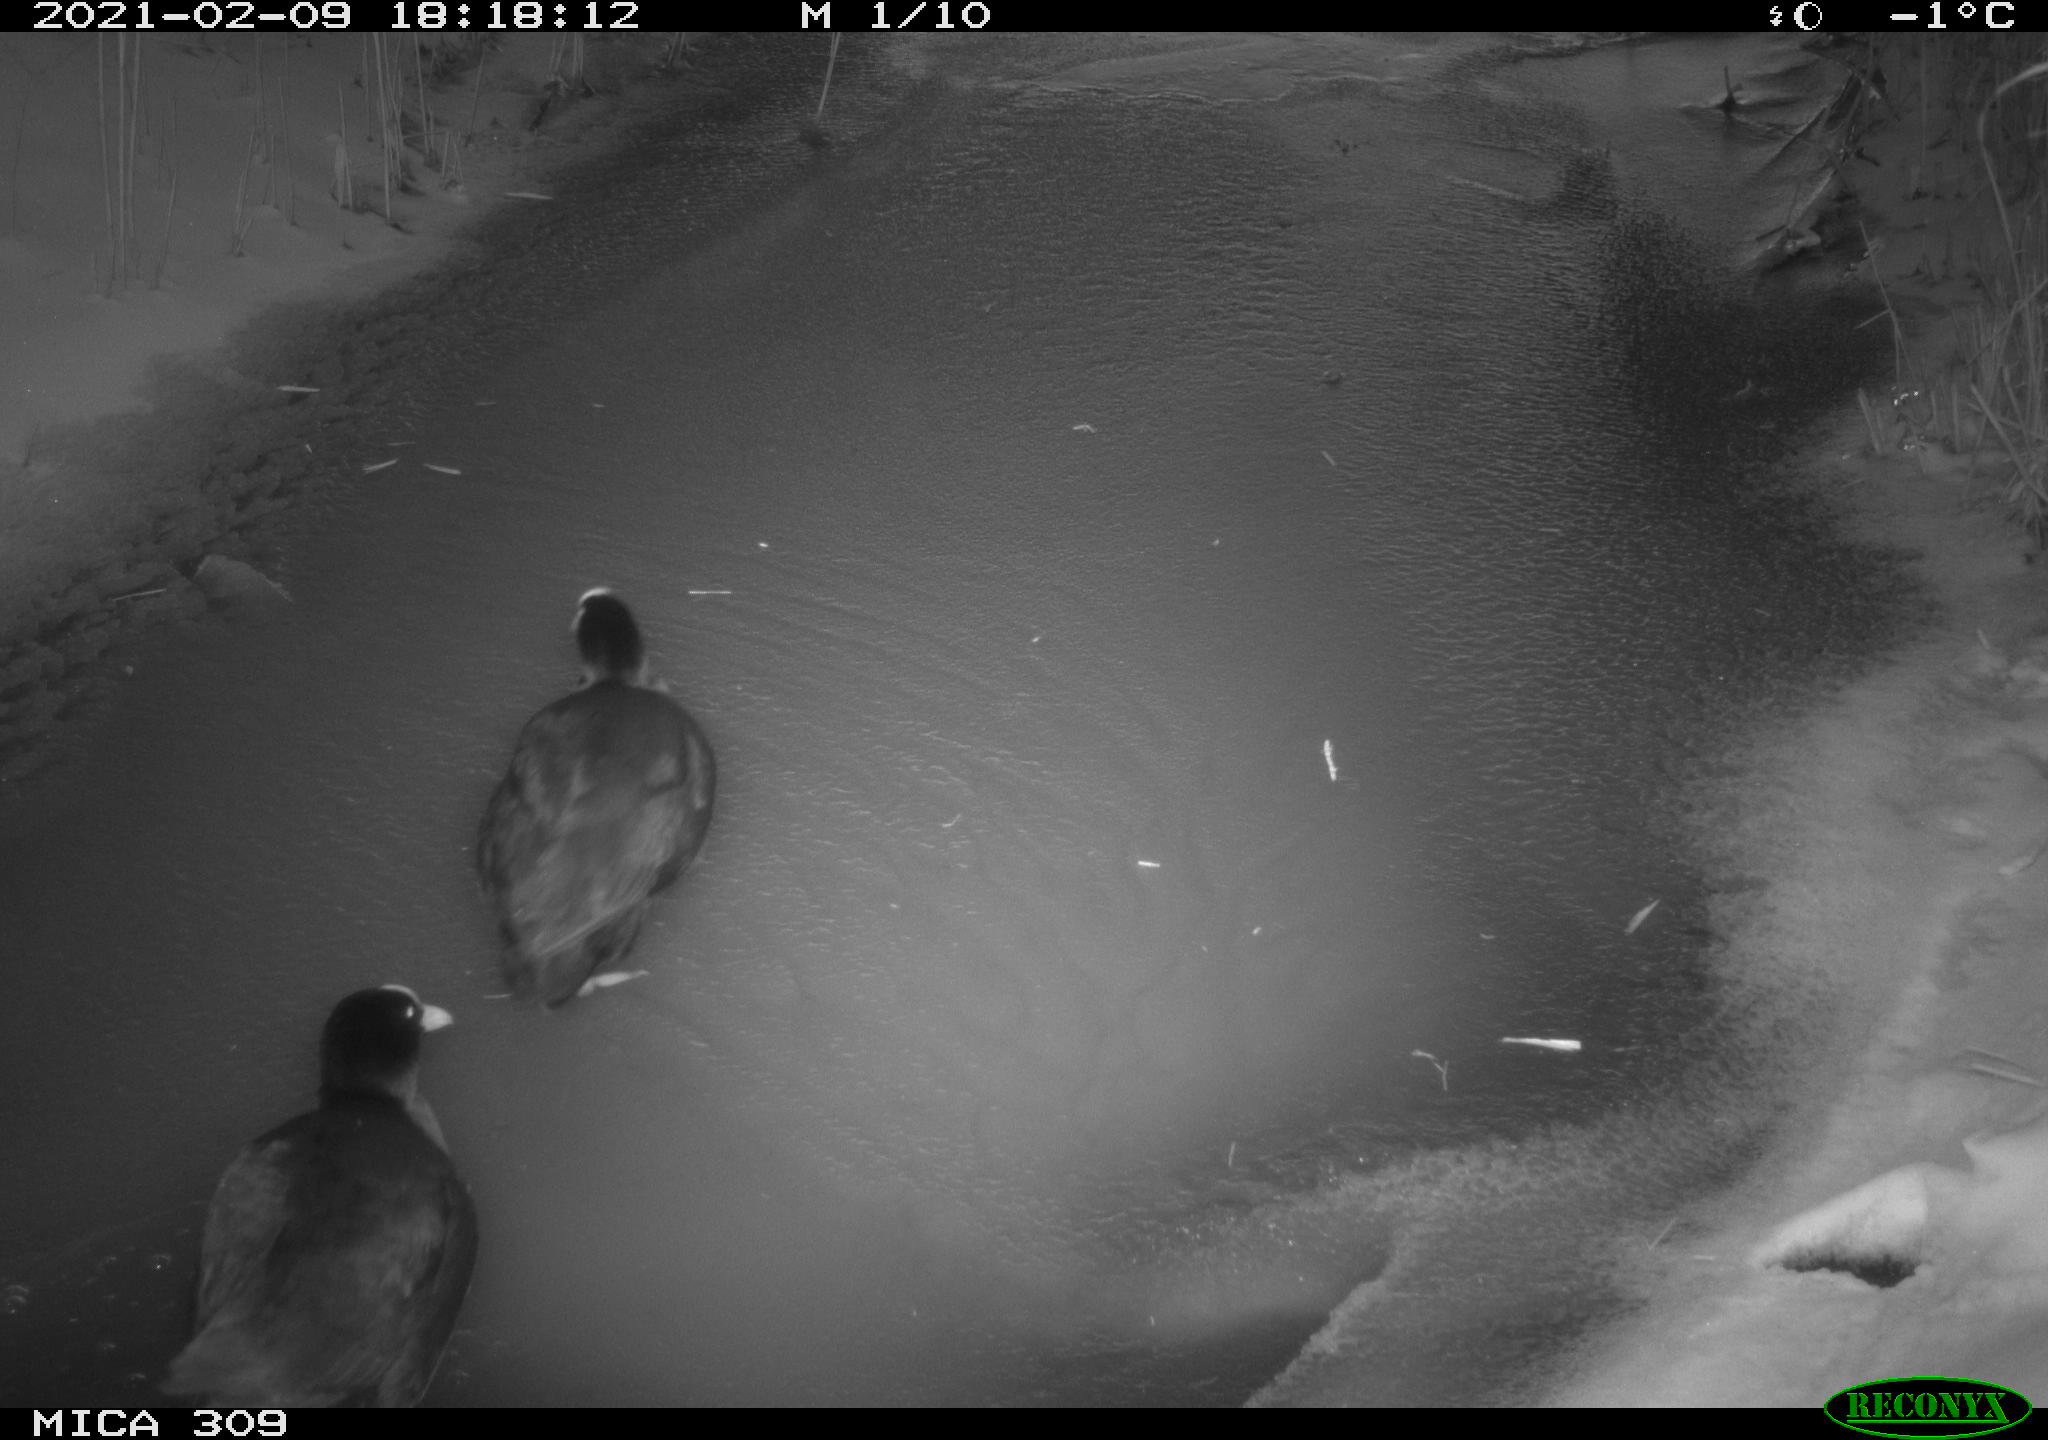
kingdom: Animalia
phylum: Chordata
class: Aves
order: Gruiformes
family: Rallidae
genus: Fulica
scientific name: Fulica atra
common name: Eurasian coot
